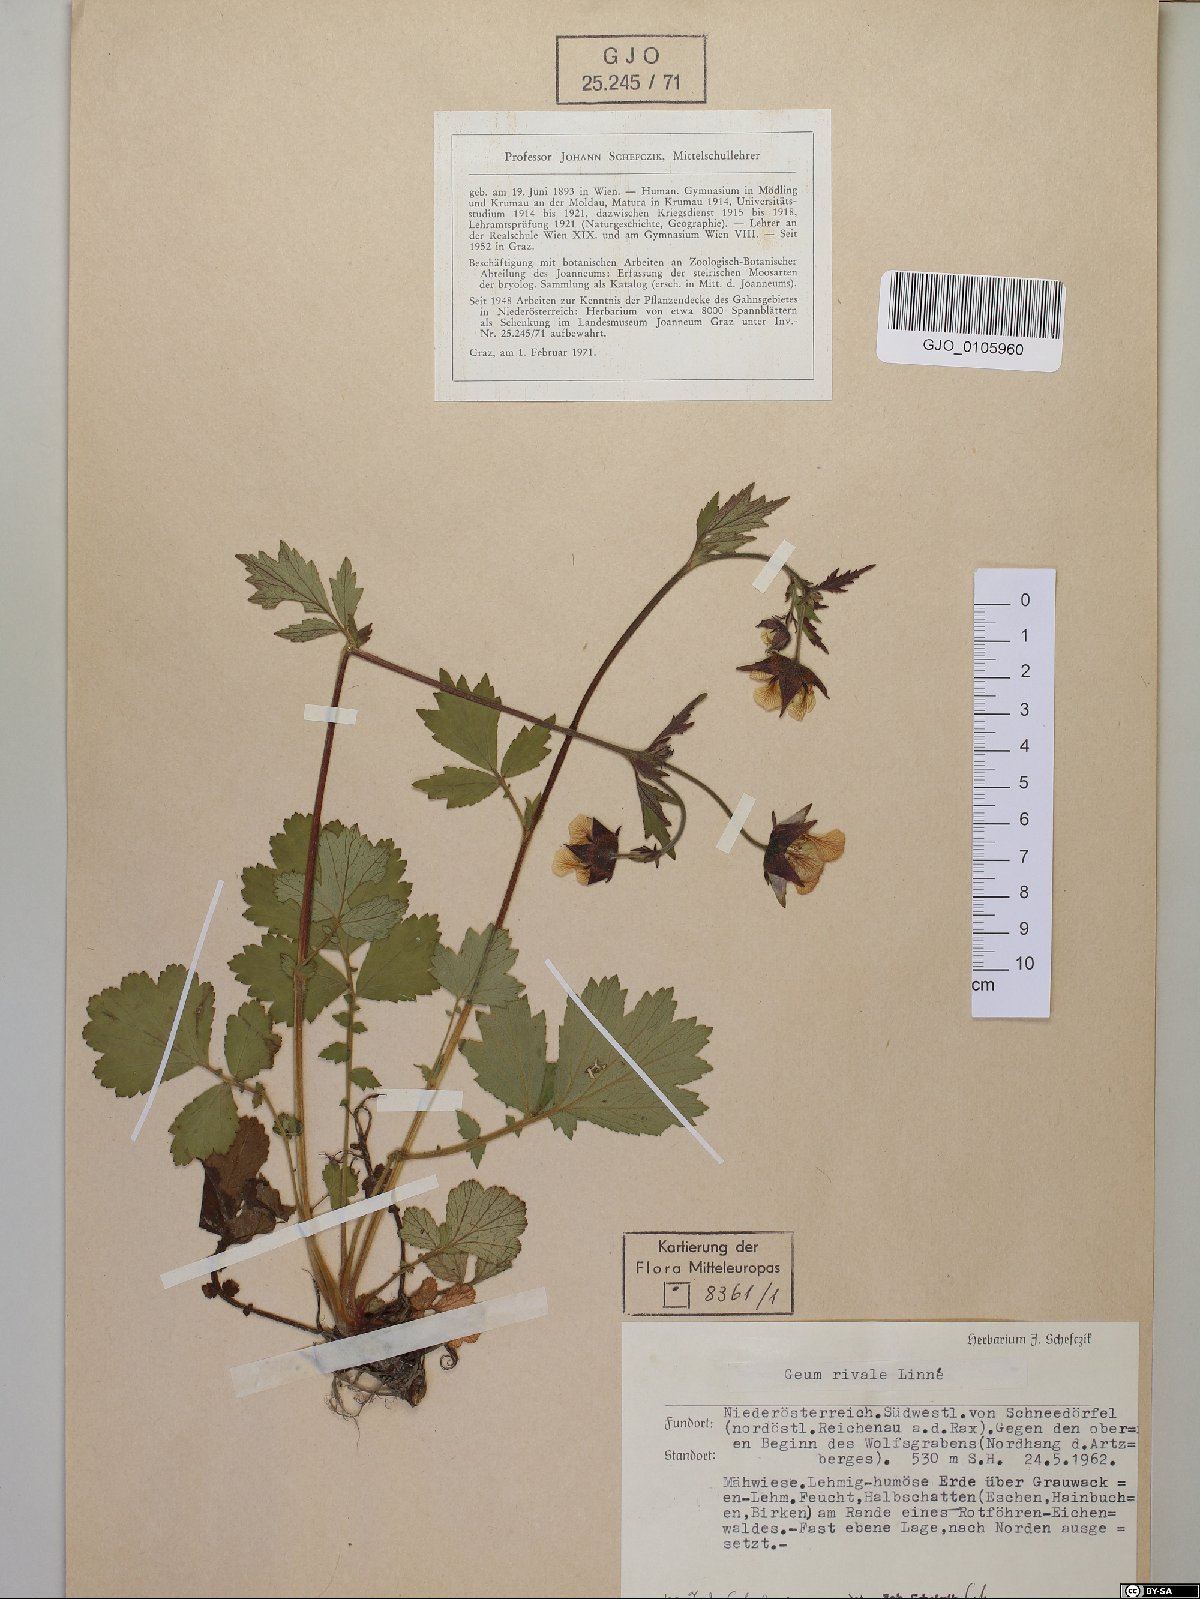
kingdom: Plantae
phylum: Tracheophyta
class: Magnoliopsida
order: Rosales
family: Rosaceae
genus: Geum
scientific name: Geum rivale
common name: Water avens
